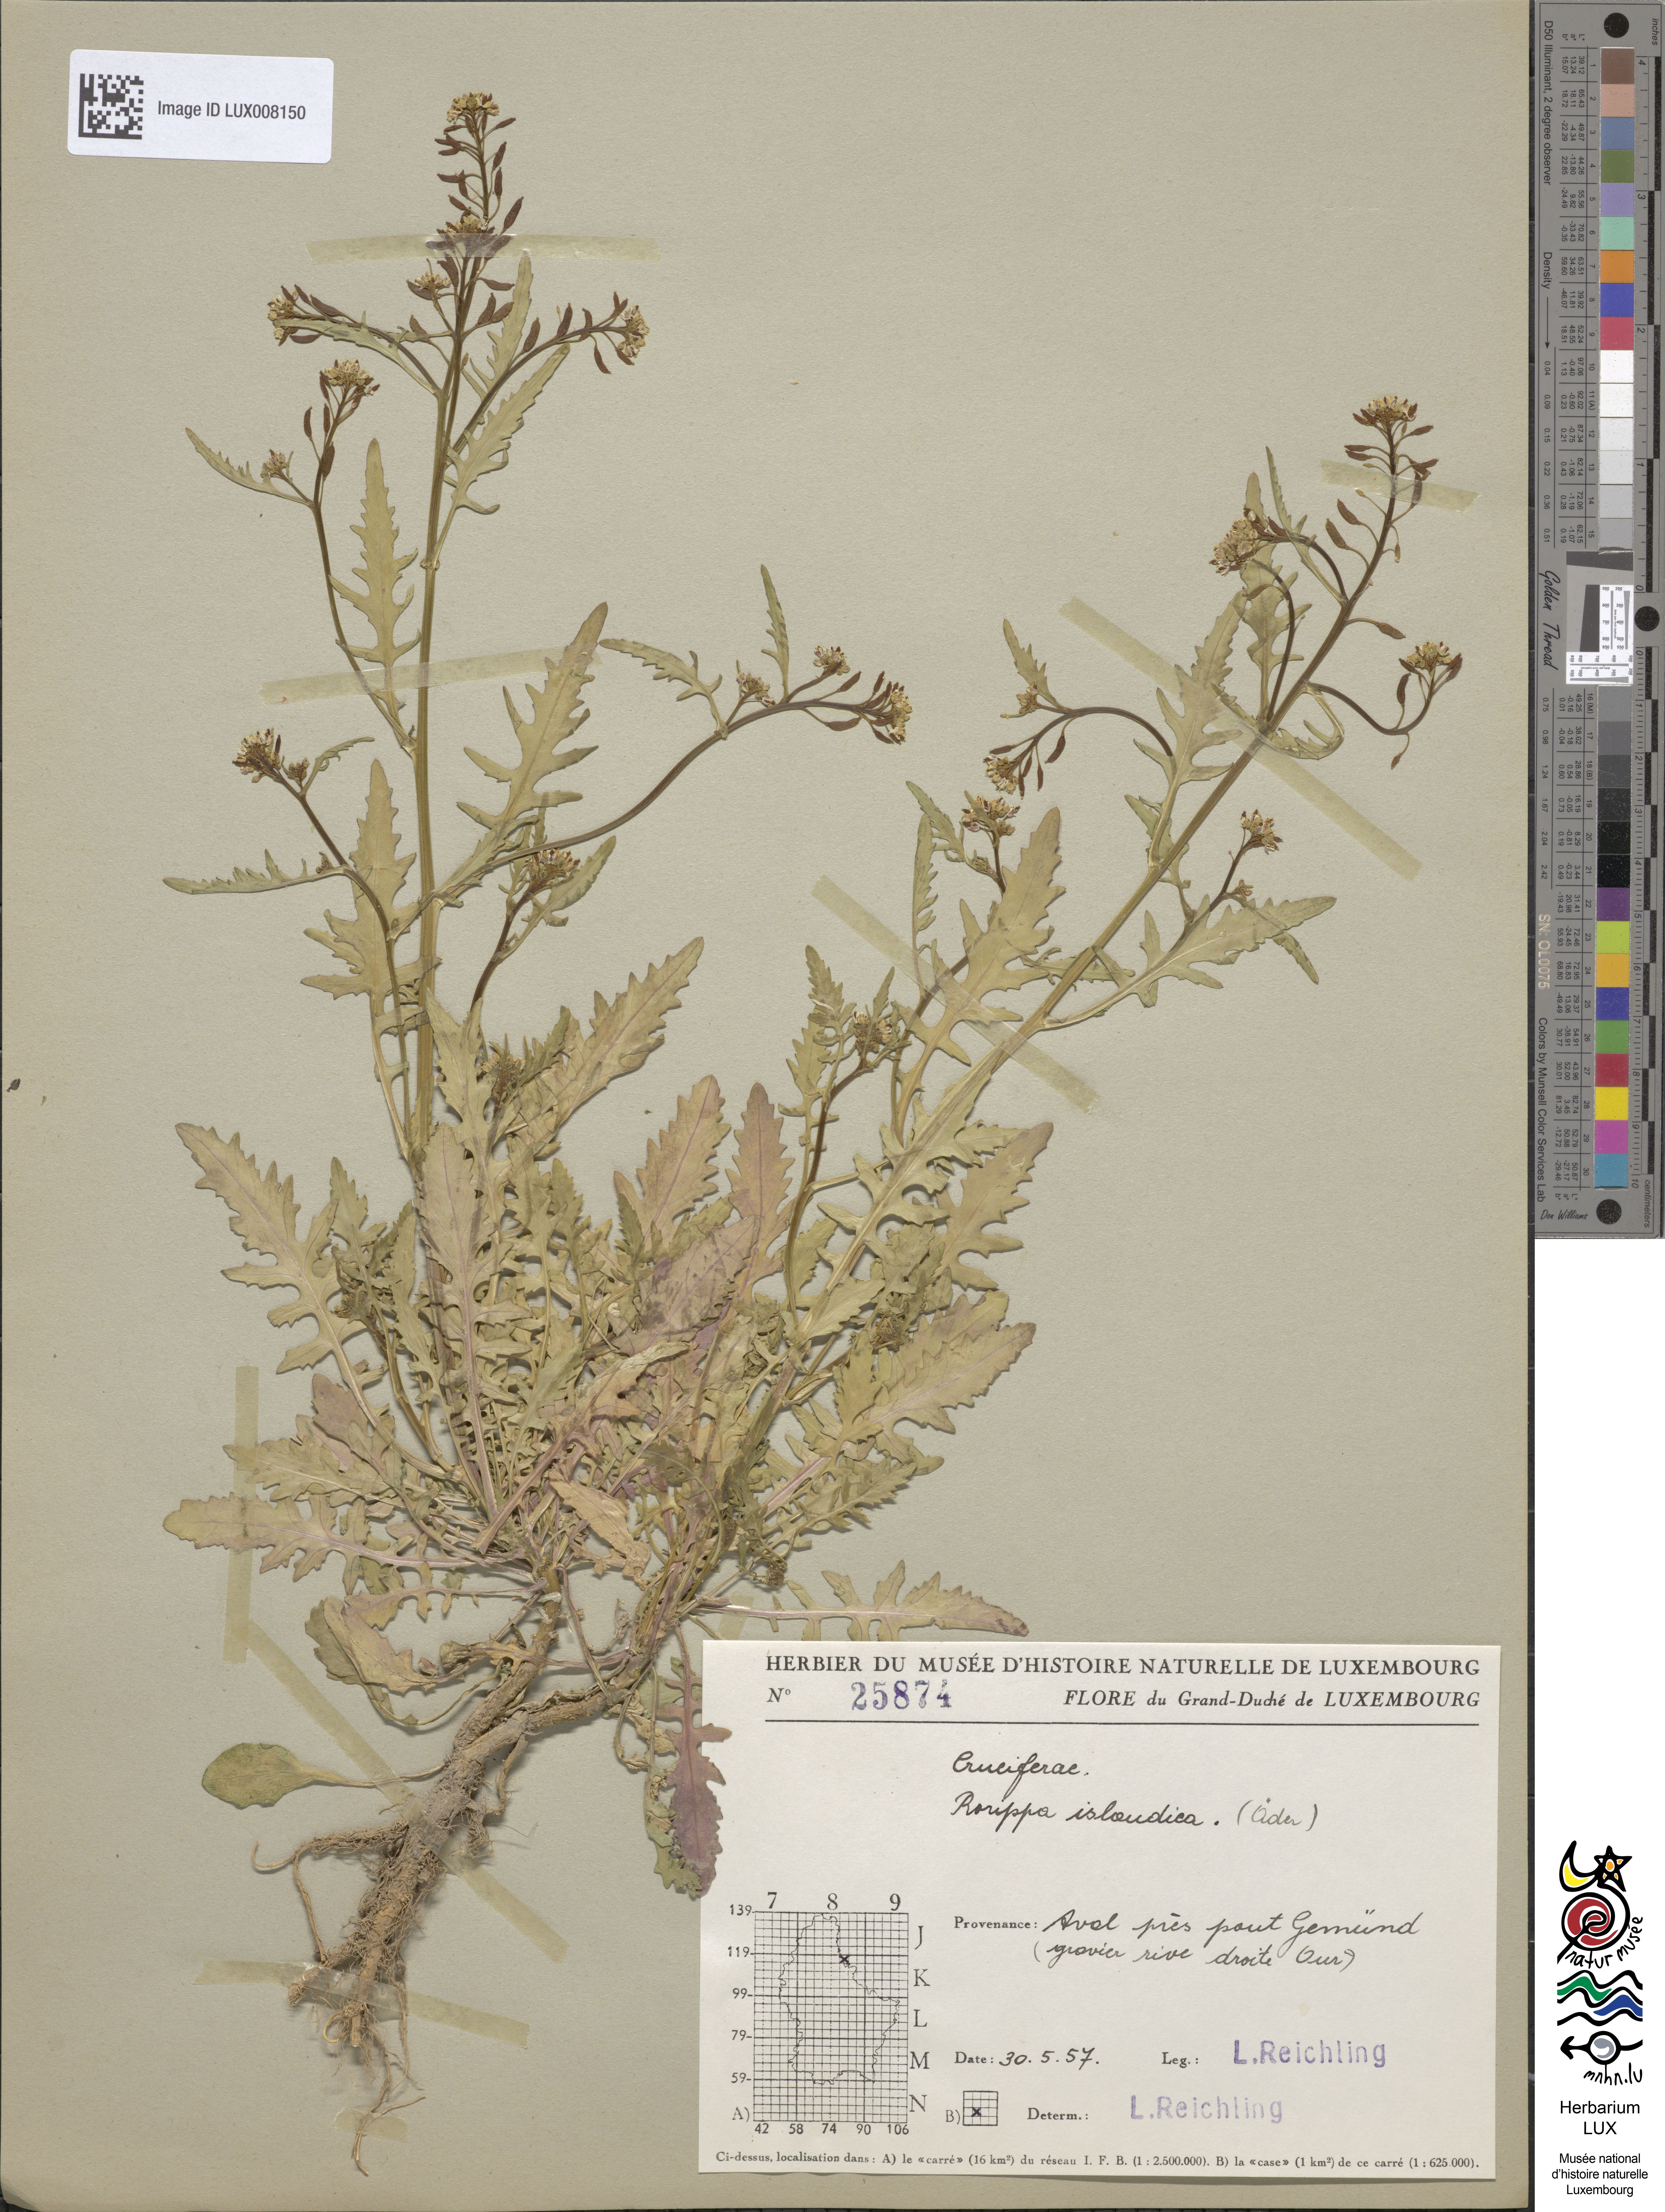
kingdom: Plantae
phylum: Tracheophyta
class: Magnoliopsida
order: Brassicales
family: Brassicaceae
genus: Rorippa
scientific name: Rorippa islandica
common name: Marsh cress
